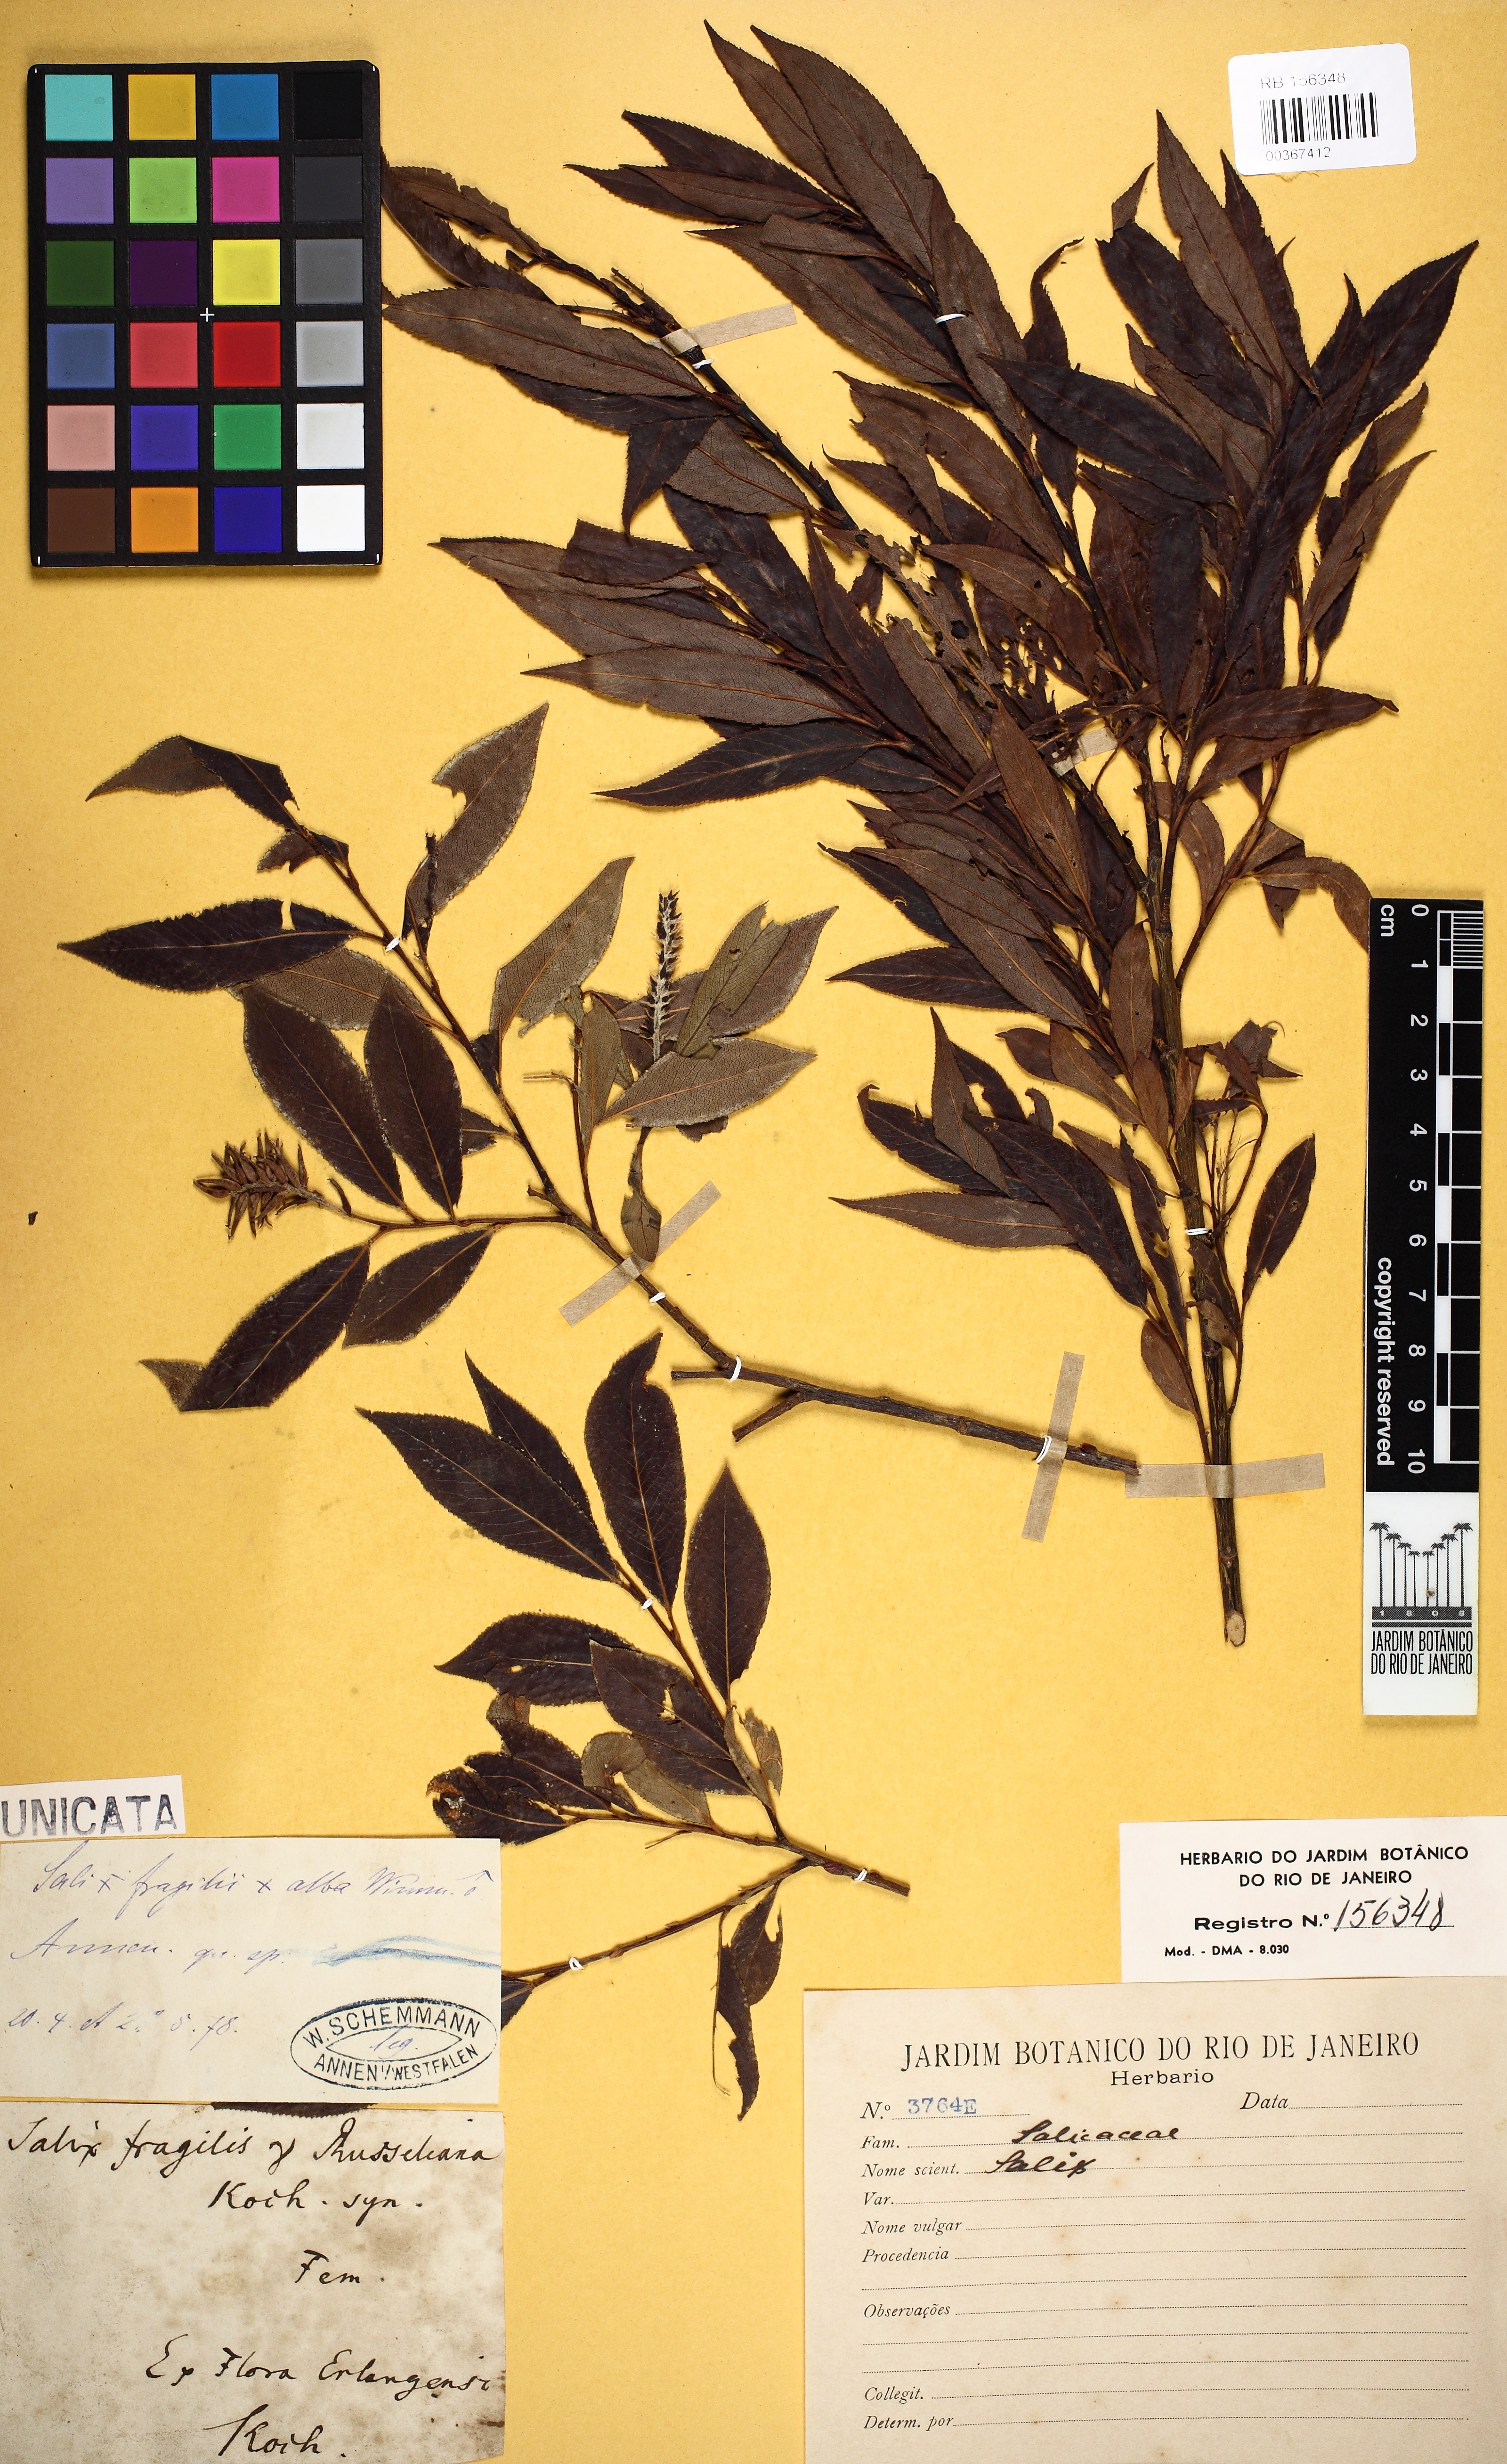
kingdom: Plantae
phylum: Tracheophyta
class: Magnoliopsida
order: Malpighiales
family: Salicaceae
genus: Salix
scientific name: Salix
